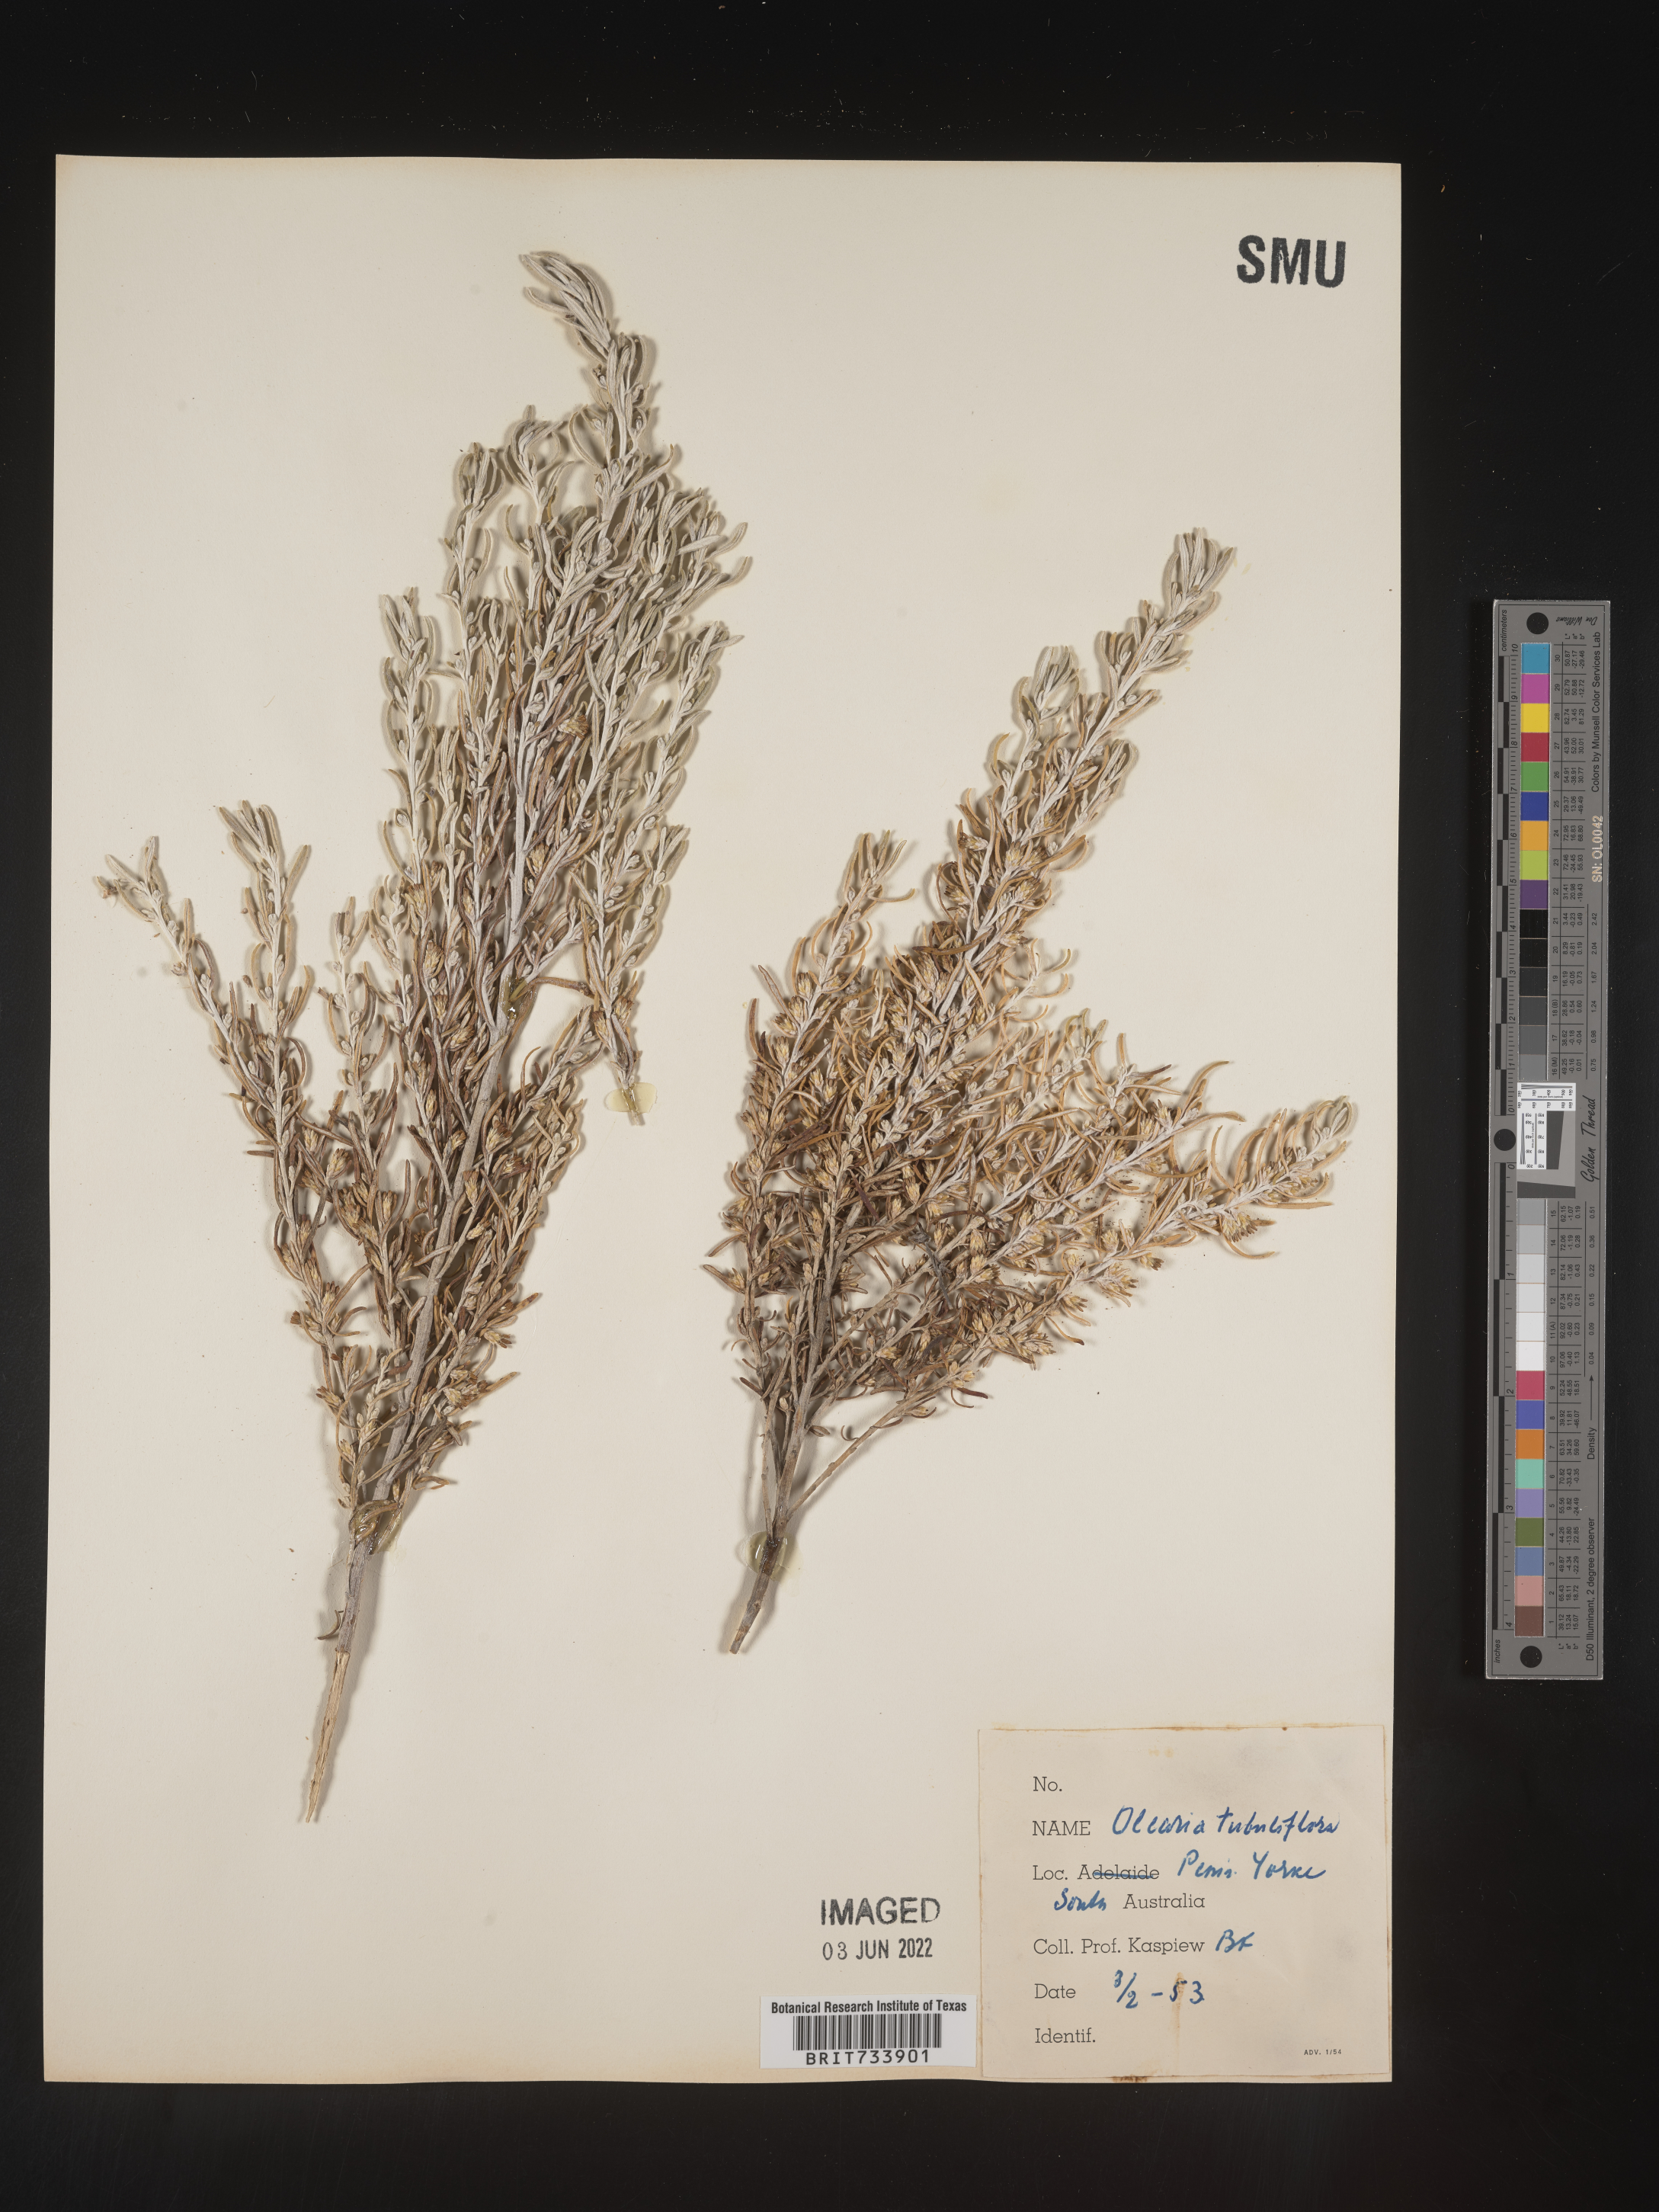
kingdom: Plantae
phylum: Tracheophyta
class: Magnoliopsida
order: Asterales
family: Asteraceae
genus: Olearia
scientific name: Olearia
